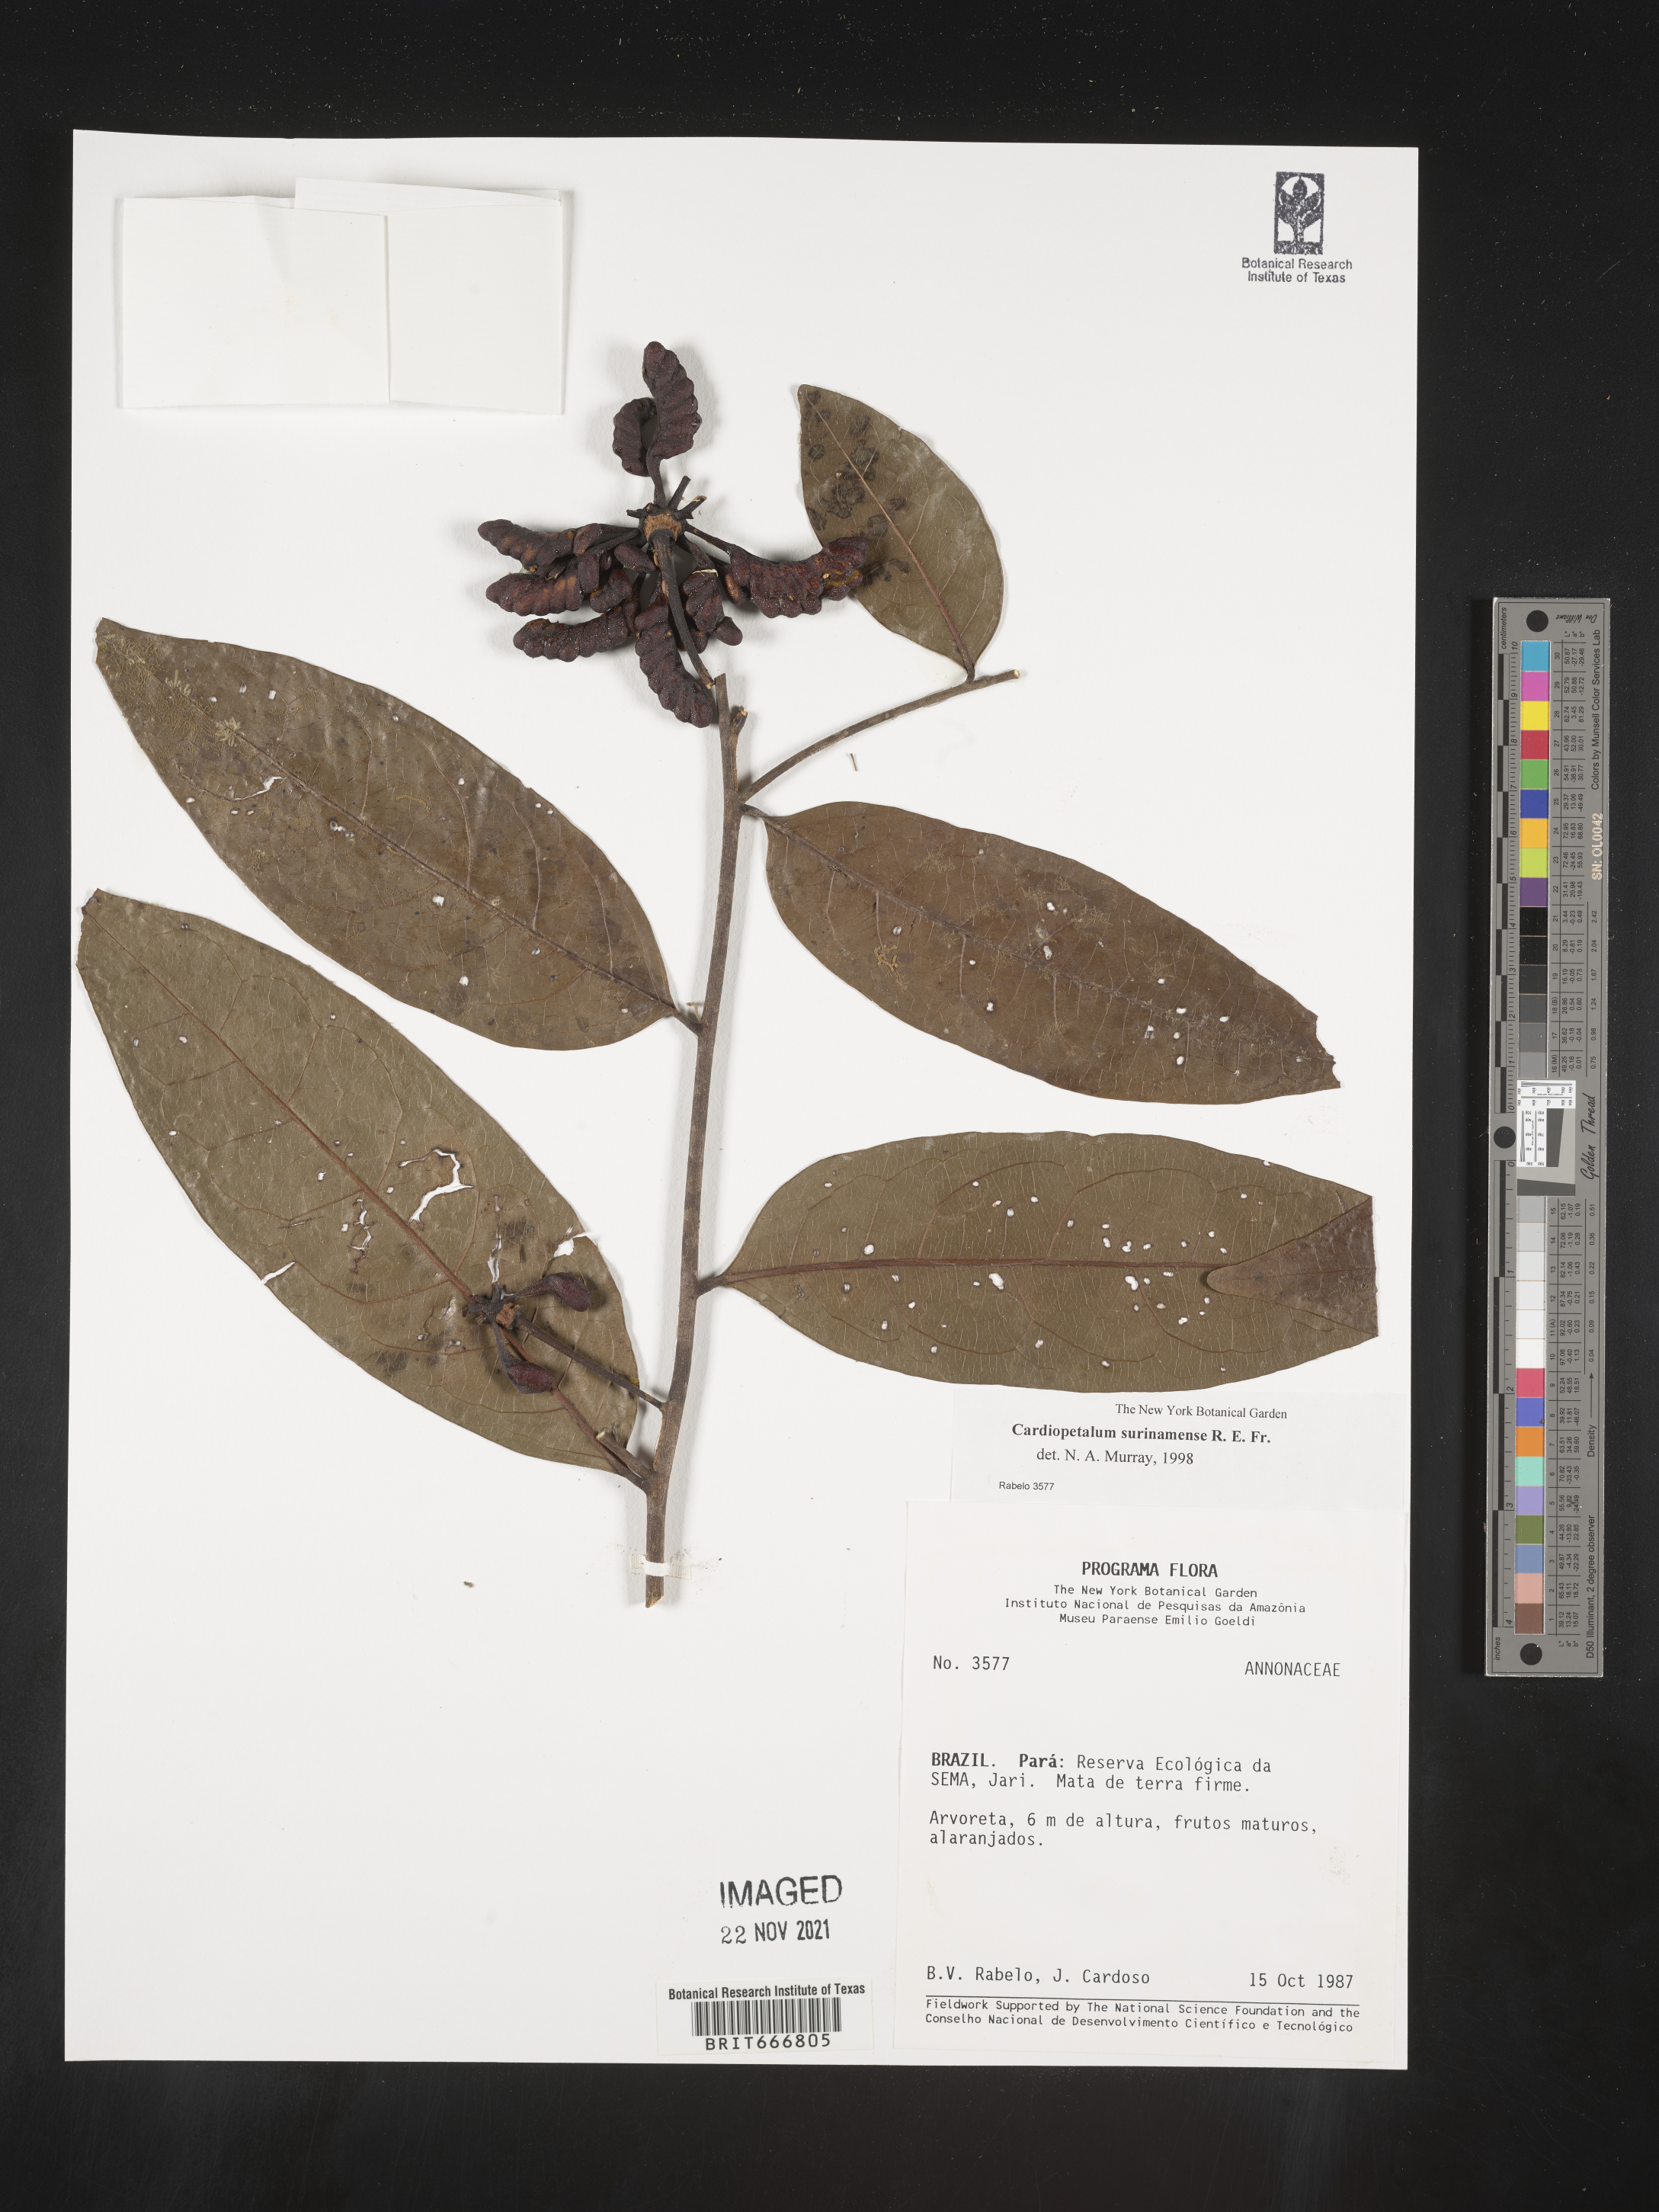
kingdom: Plantae
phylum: Tracheophyta
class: Magnoliopsida
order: Magnoliales
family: Annonaceae
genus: Cardiopetalum
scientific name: Cardiopetalum
